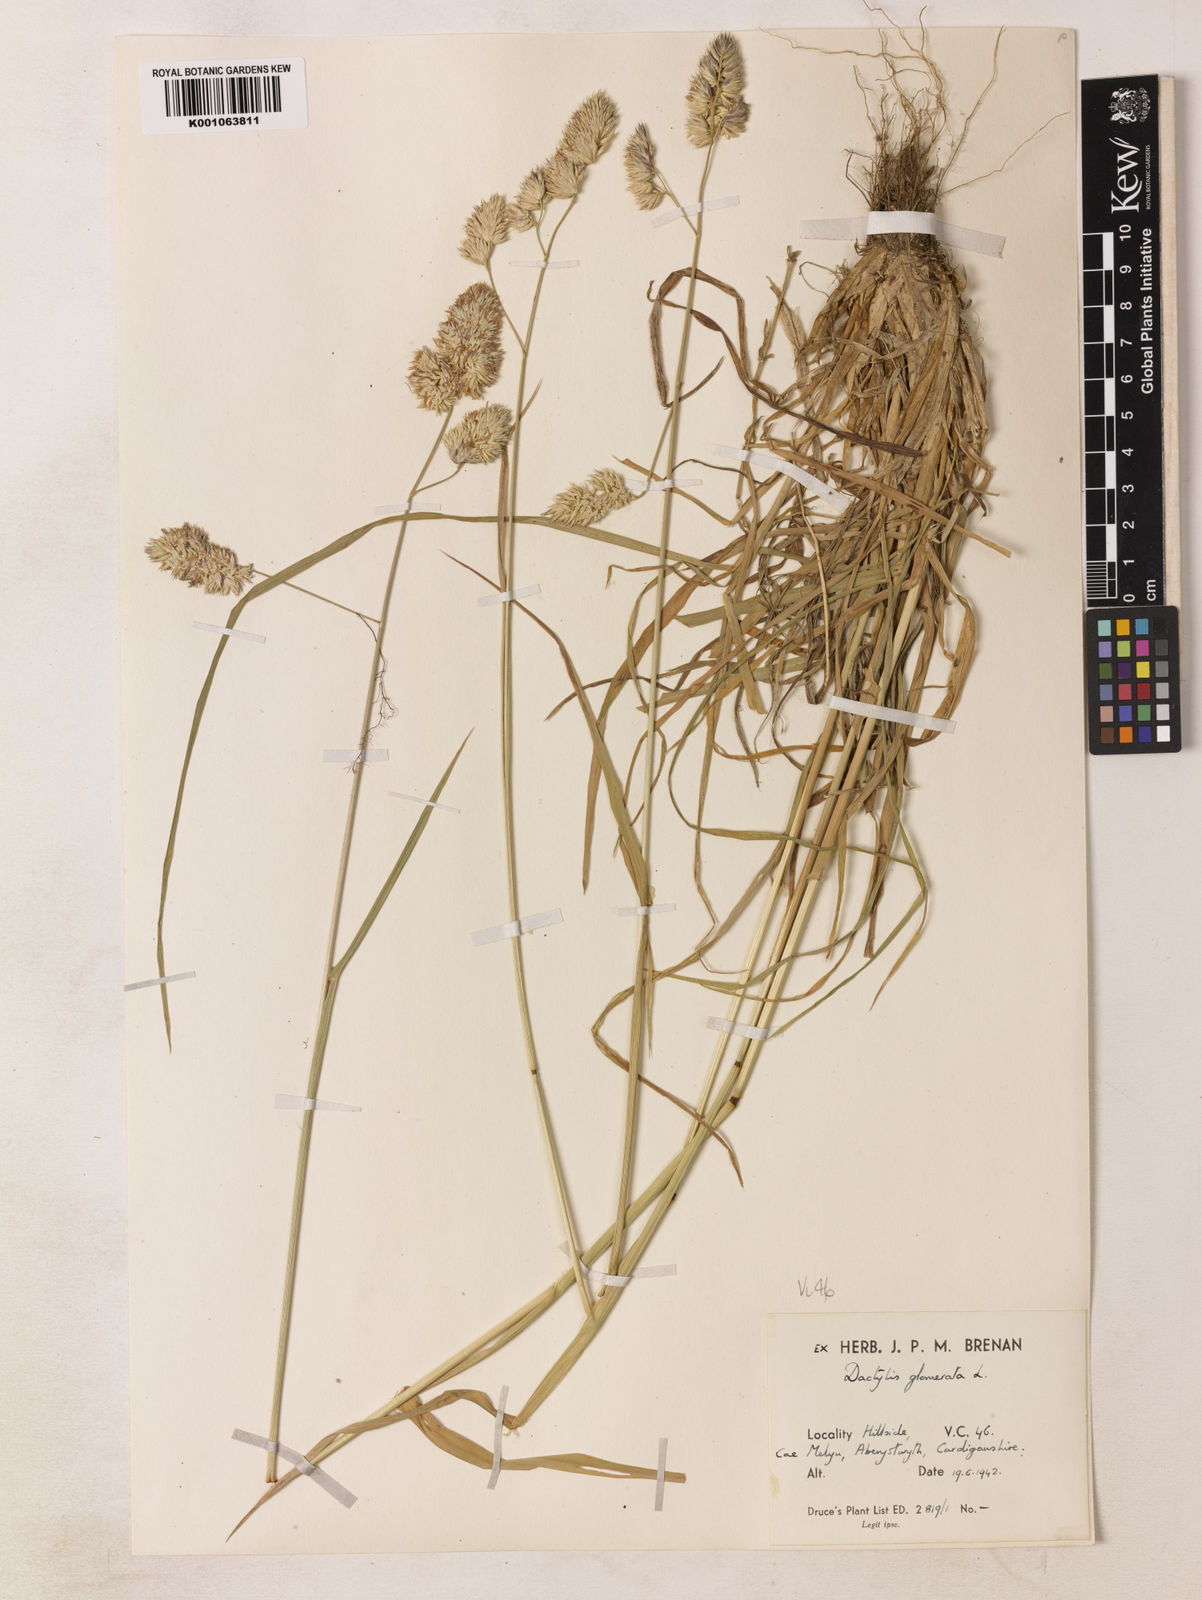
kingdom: Plantae
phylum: Tracheophyta
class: Liliopsida
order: Poales
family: Poaceae
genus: Dactylis
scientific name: Dactylis glomerata
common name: Orchardgrass
